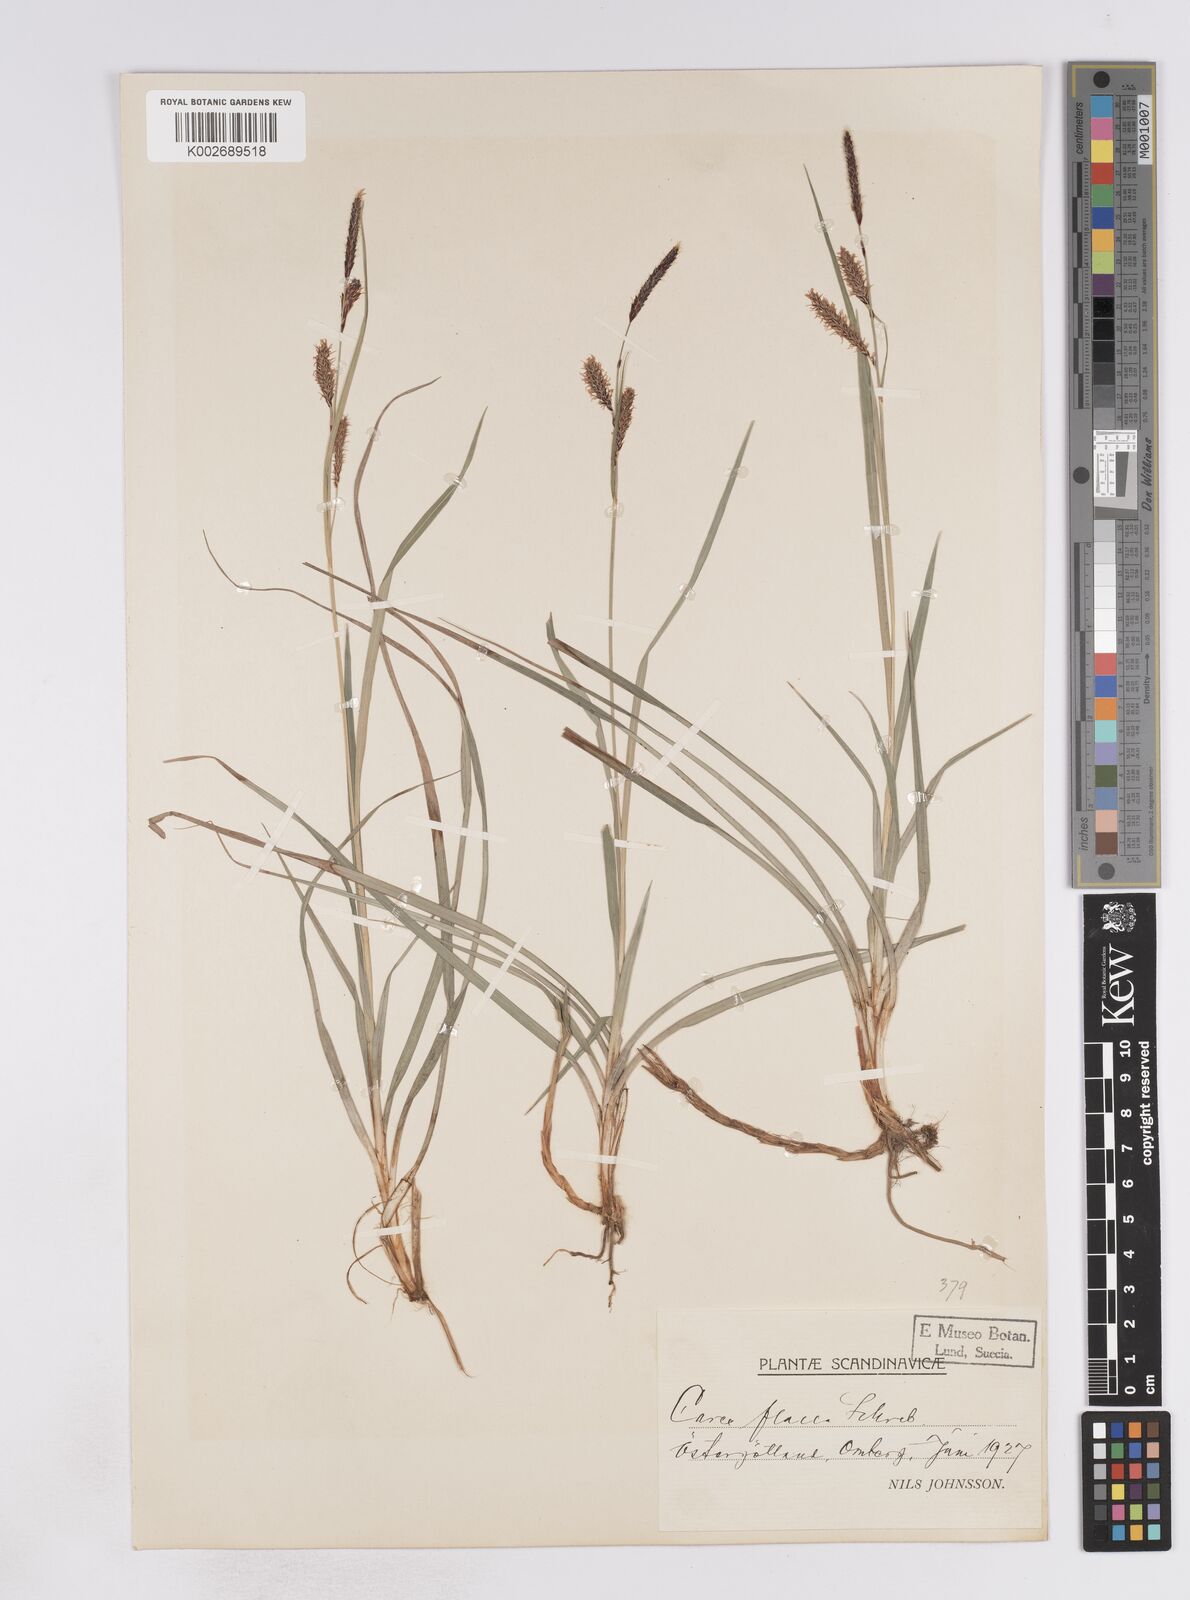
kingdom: Plantae
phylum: Tracheophyta
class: Liliopsida
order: Poales
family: Cyperaceae
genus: Carex
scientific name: Carex flacca
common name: Glaucous sedge
